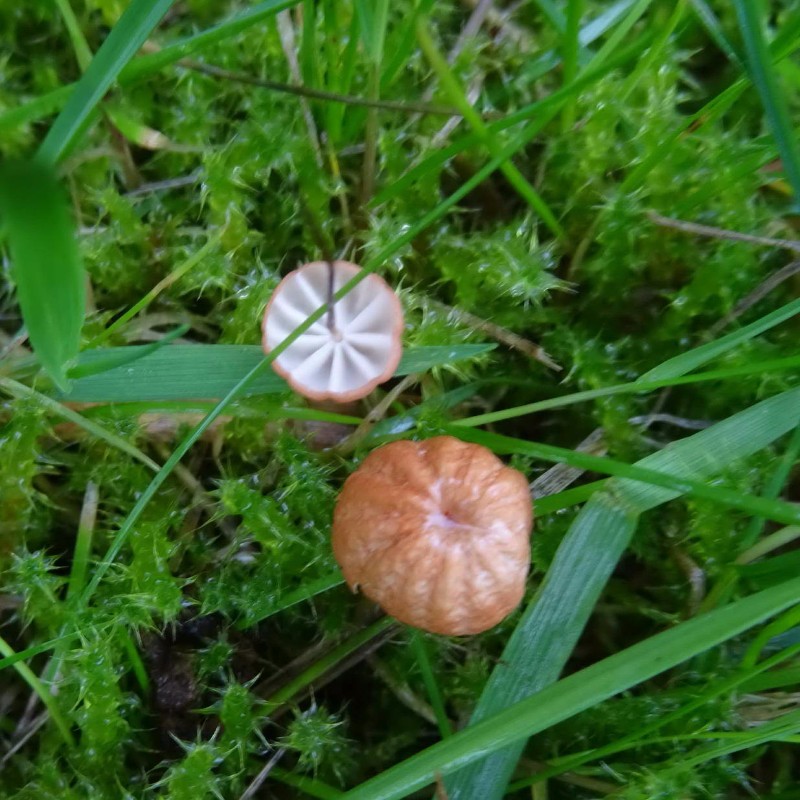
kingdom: Fungi
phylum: Basidiomycota
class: Agaricomycetes
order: Agaricales
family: Marasmiaceae
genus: Marasmius
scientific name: Marasmius curreyi
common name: teglrød bruskhat
